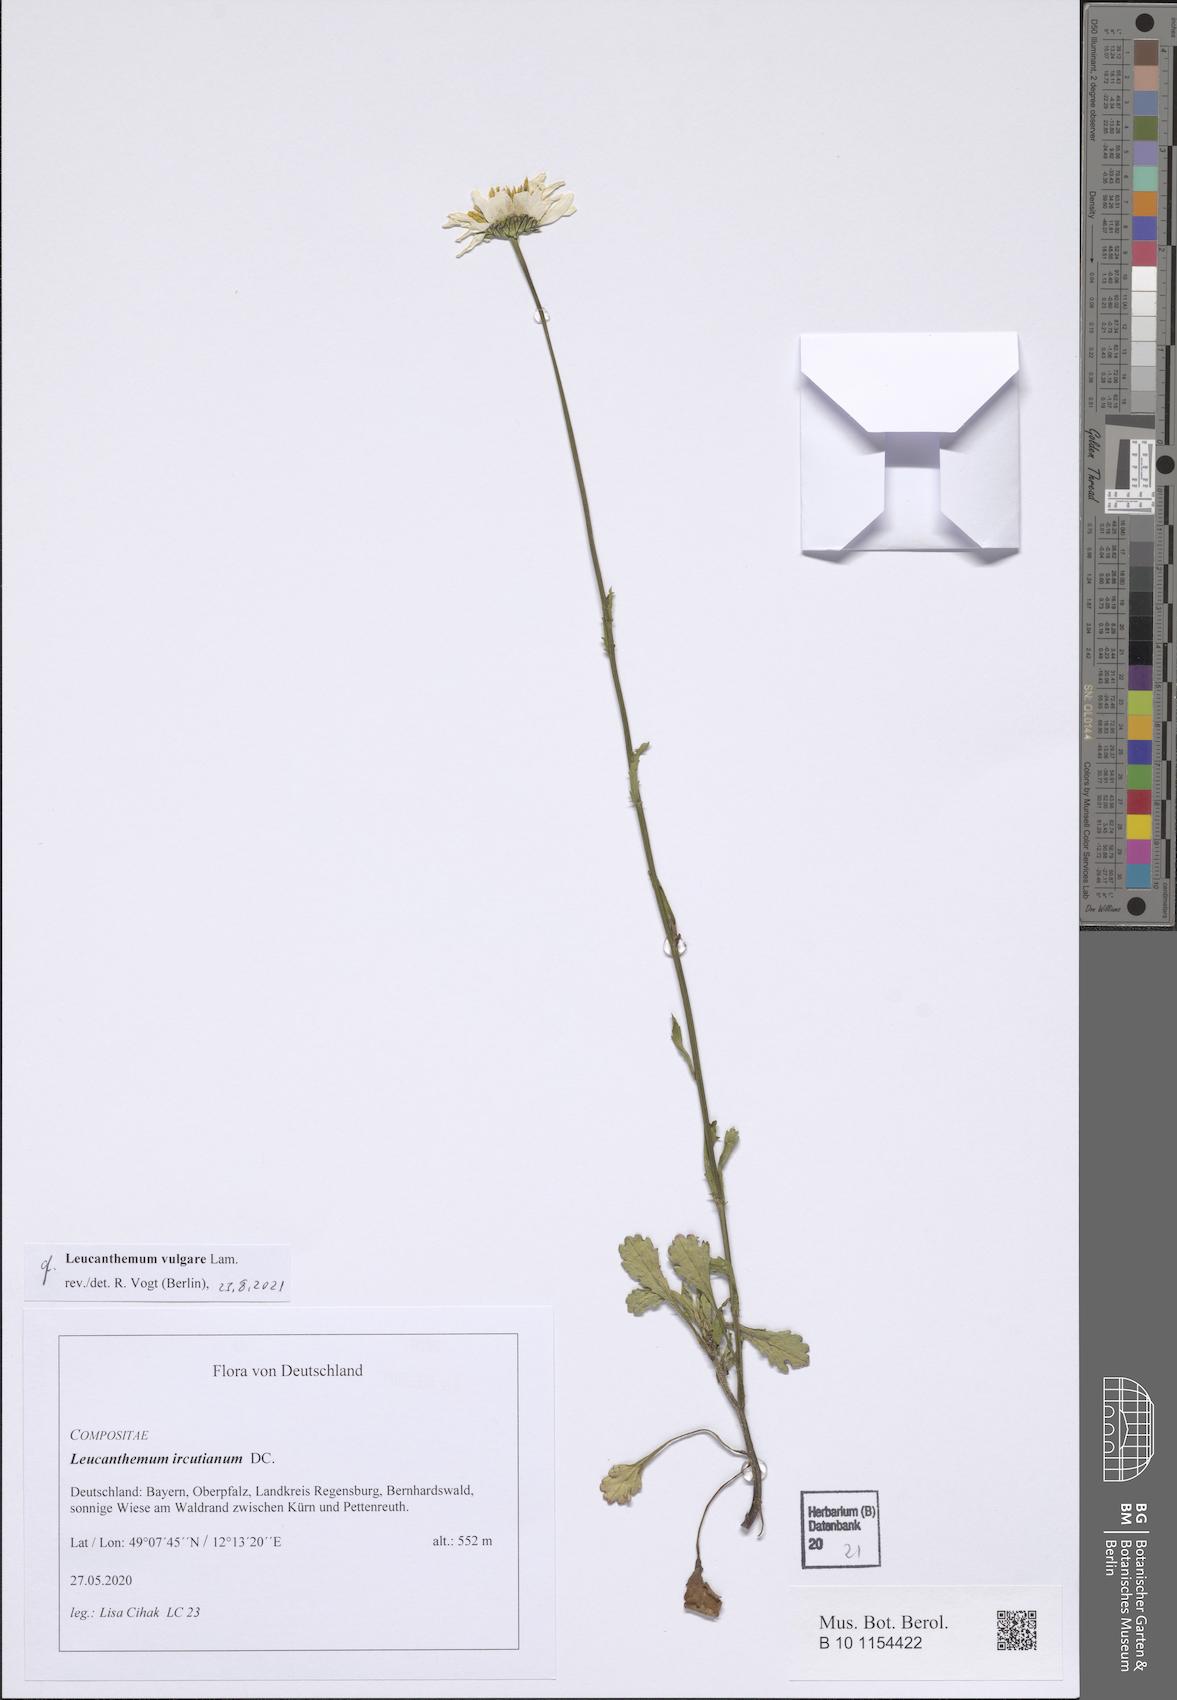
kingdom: Plantae
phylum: Tracheophyta
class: Magnoliopsida
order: Asterales
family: Asteraceae
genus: Leucanthemum
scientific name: Leucanthemum vulgare
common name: Oxeye daisy
